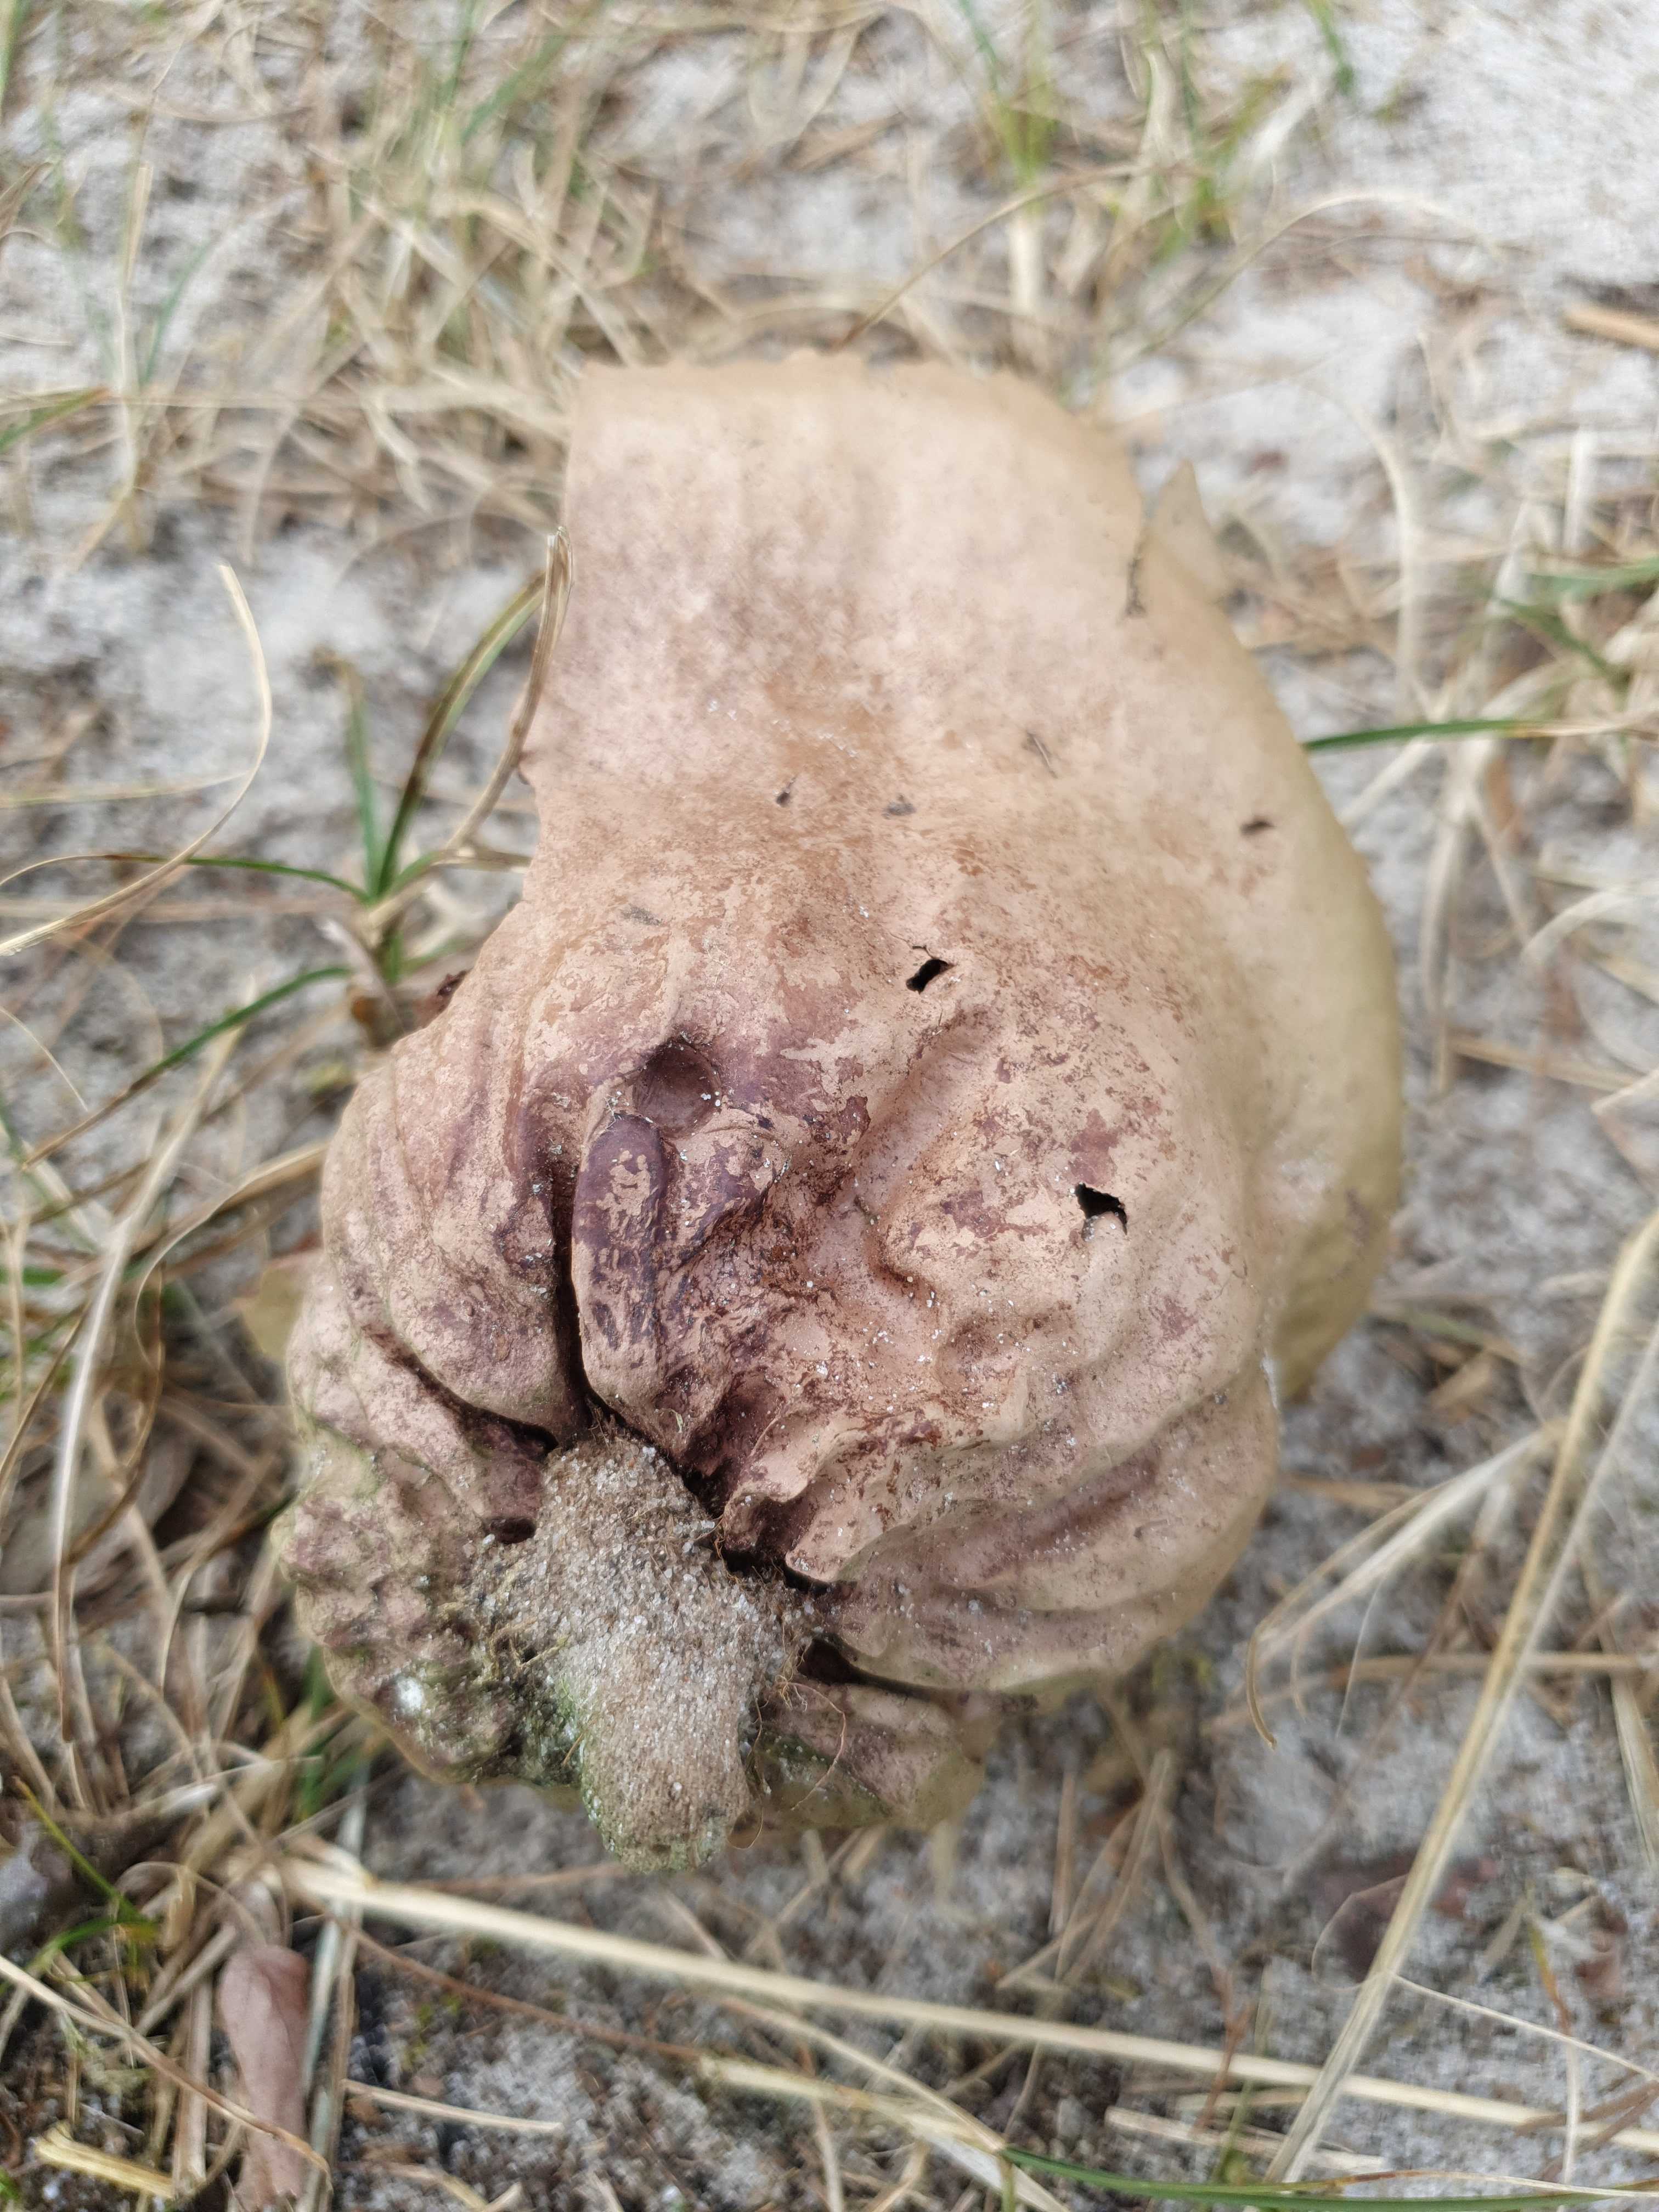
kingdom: Fungi
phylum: Basidiomycota
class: Agaricomycetes
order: Agaricales
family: Lycoperdaceae
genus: Bovistella
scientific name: Bovistella utriformis
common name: skællet støvbold
